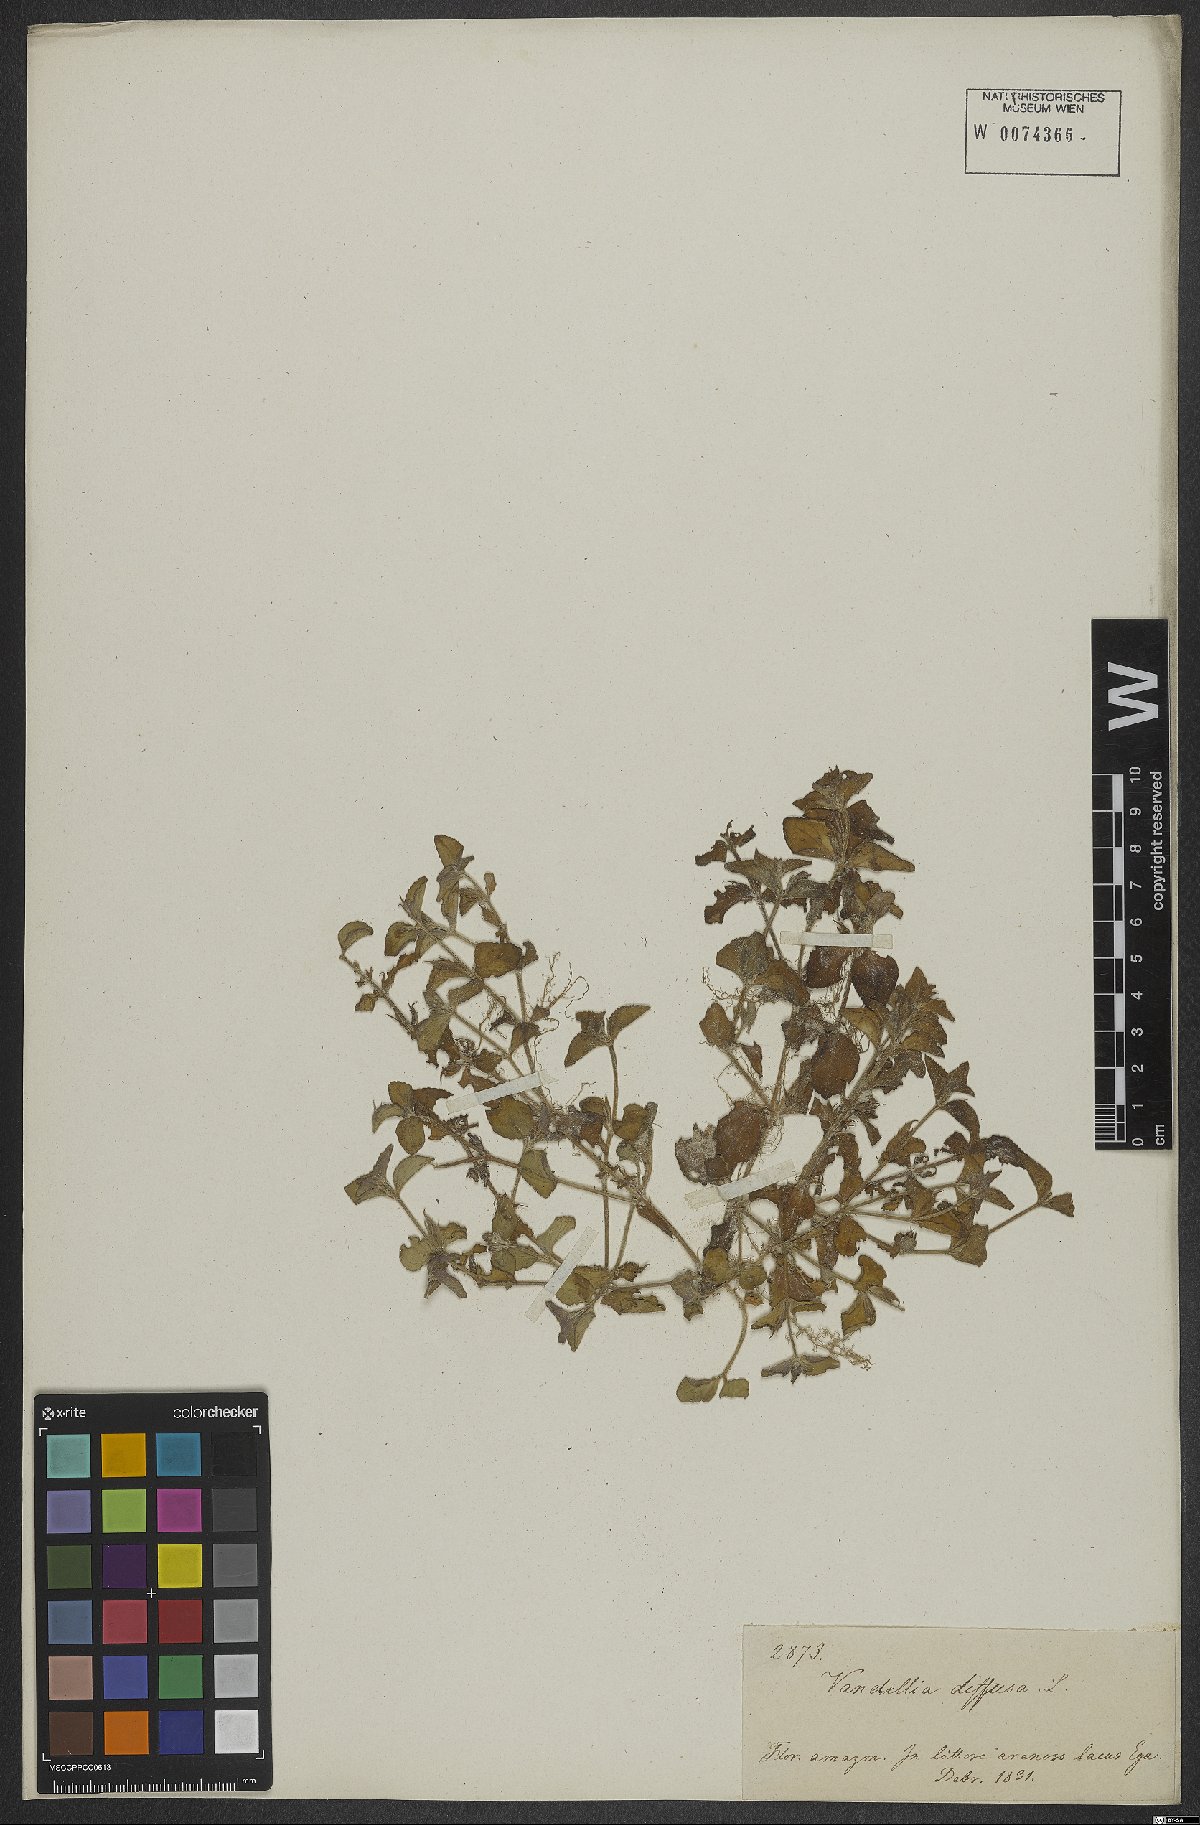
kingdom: Plantae
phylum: Tracheophyta
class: Magnoliopsida
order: Lamiales
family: Linderniaceae
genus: Vandellia
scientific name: Vandellia diffusa
